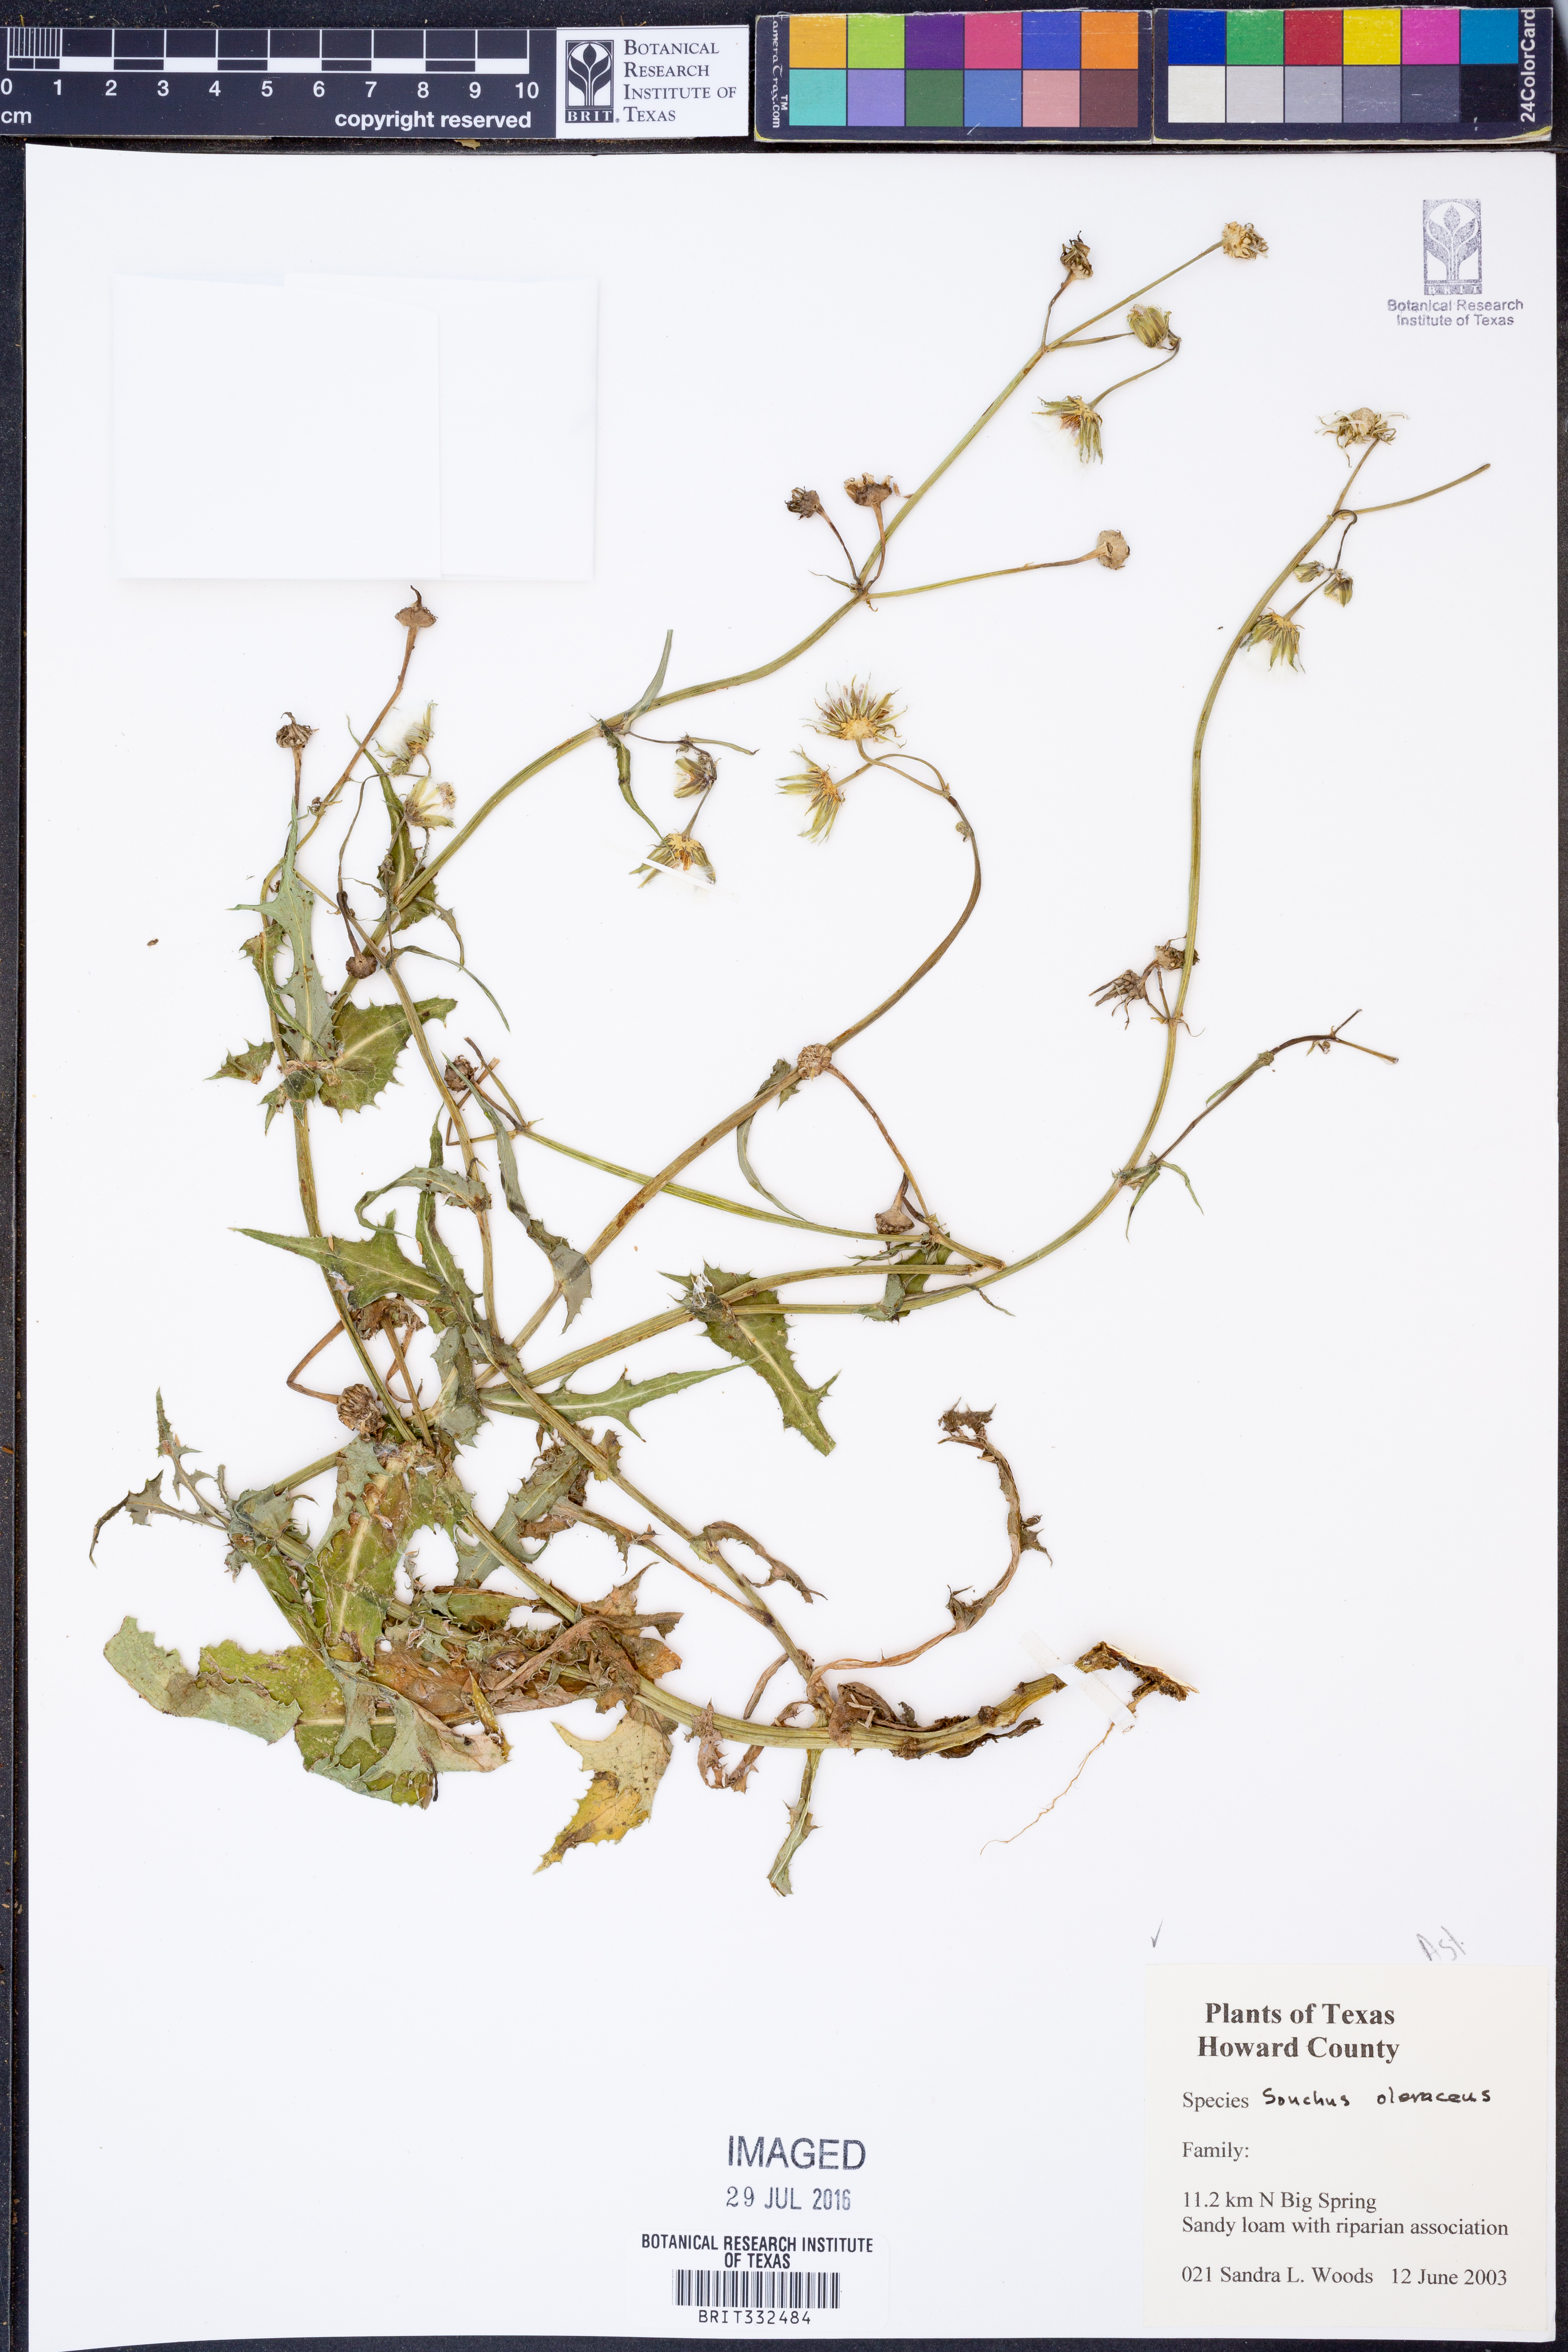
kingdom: Plantae
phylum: Tracheophyta
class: Magnoliopsida
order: Asterales
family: Asteraceae
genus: Sonchus
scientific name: Sonchus oleraceus
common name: Common sowthistle
